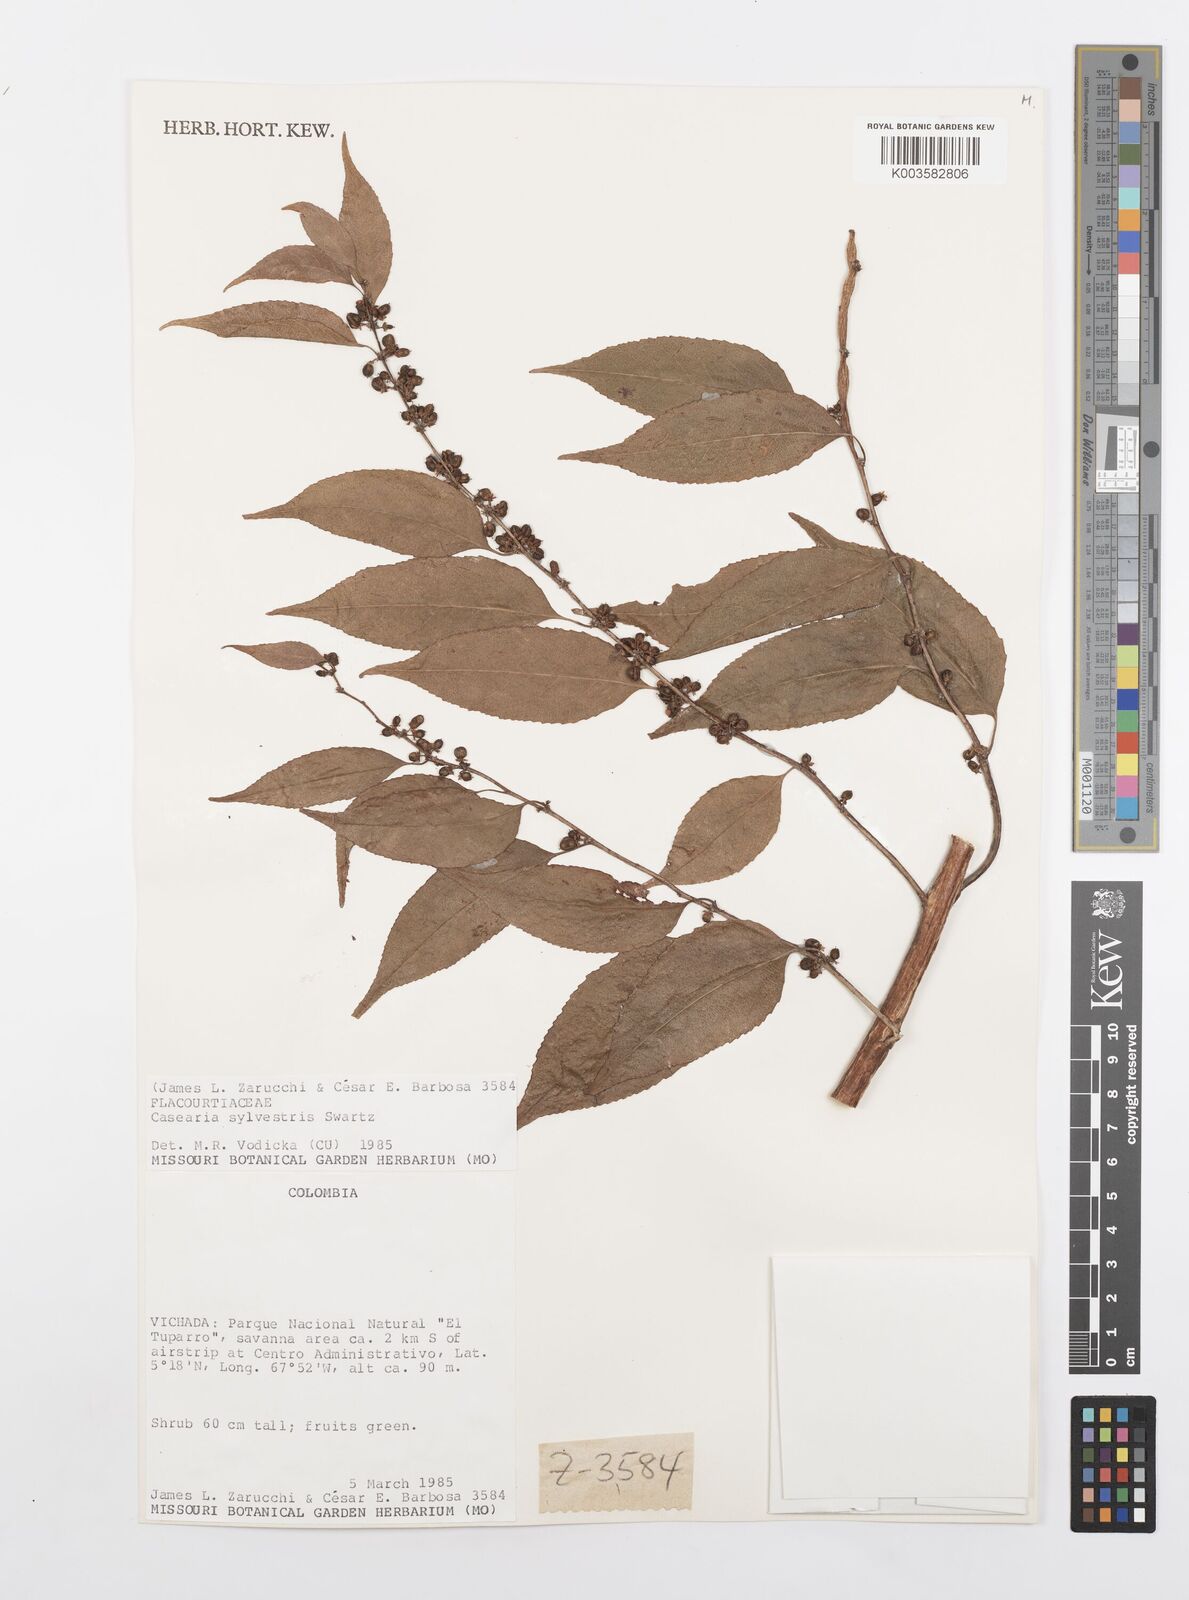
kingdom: Plantae
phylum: Tracheophyta
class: Magnoliopsida
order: Malpighiales
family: Salicaceae
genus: Casearia
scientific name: Casearia sylvestris
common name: Wild sage
